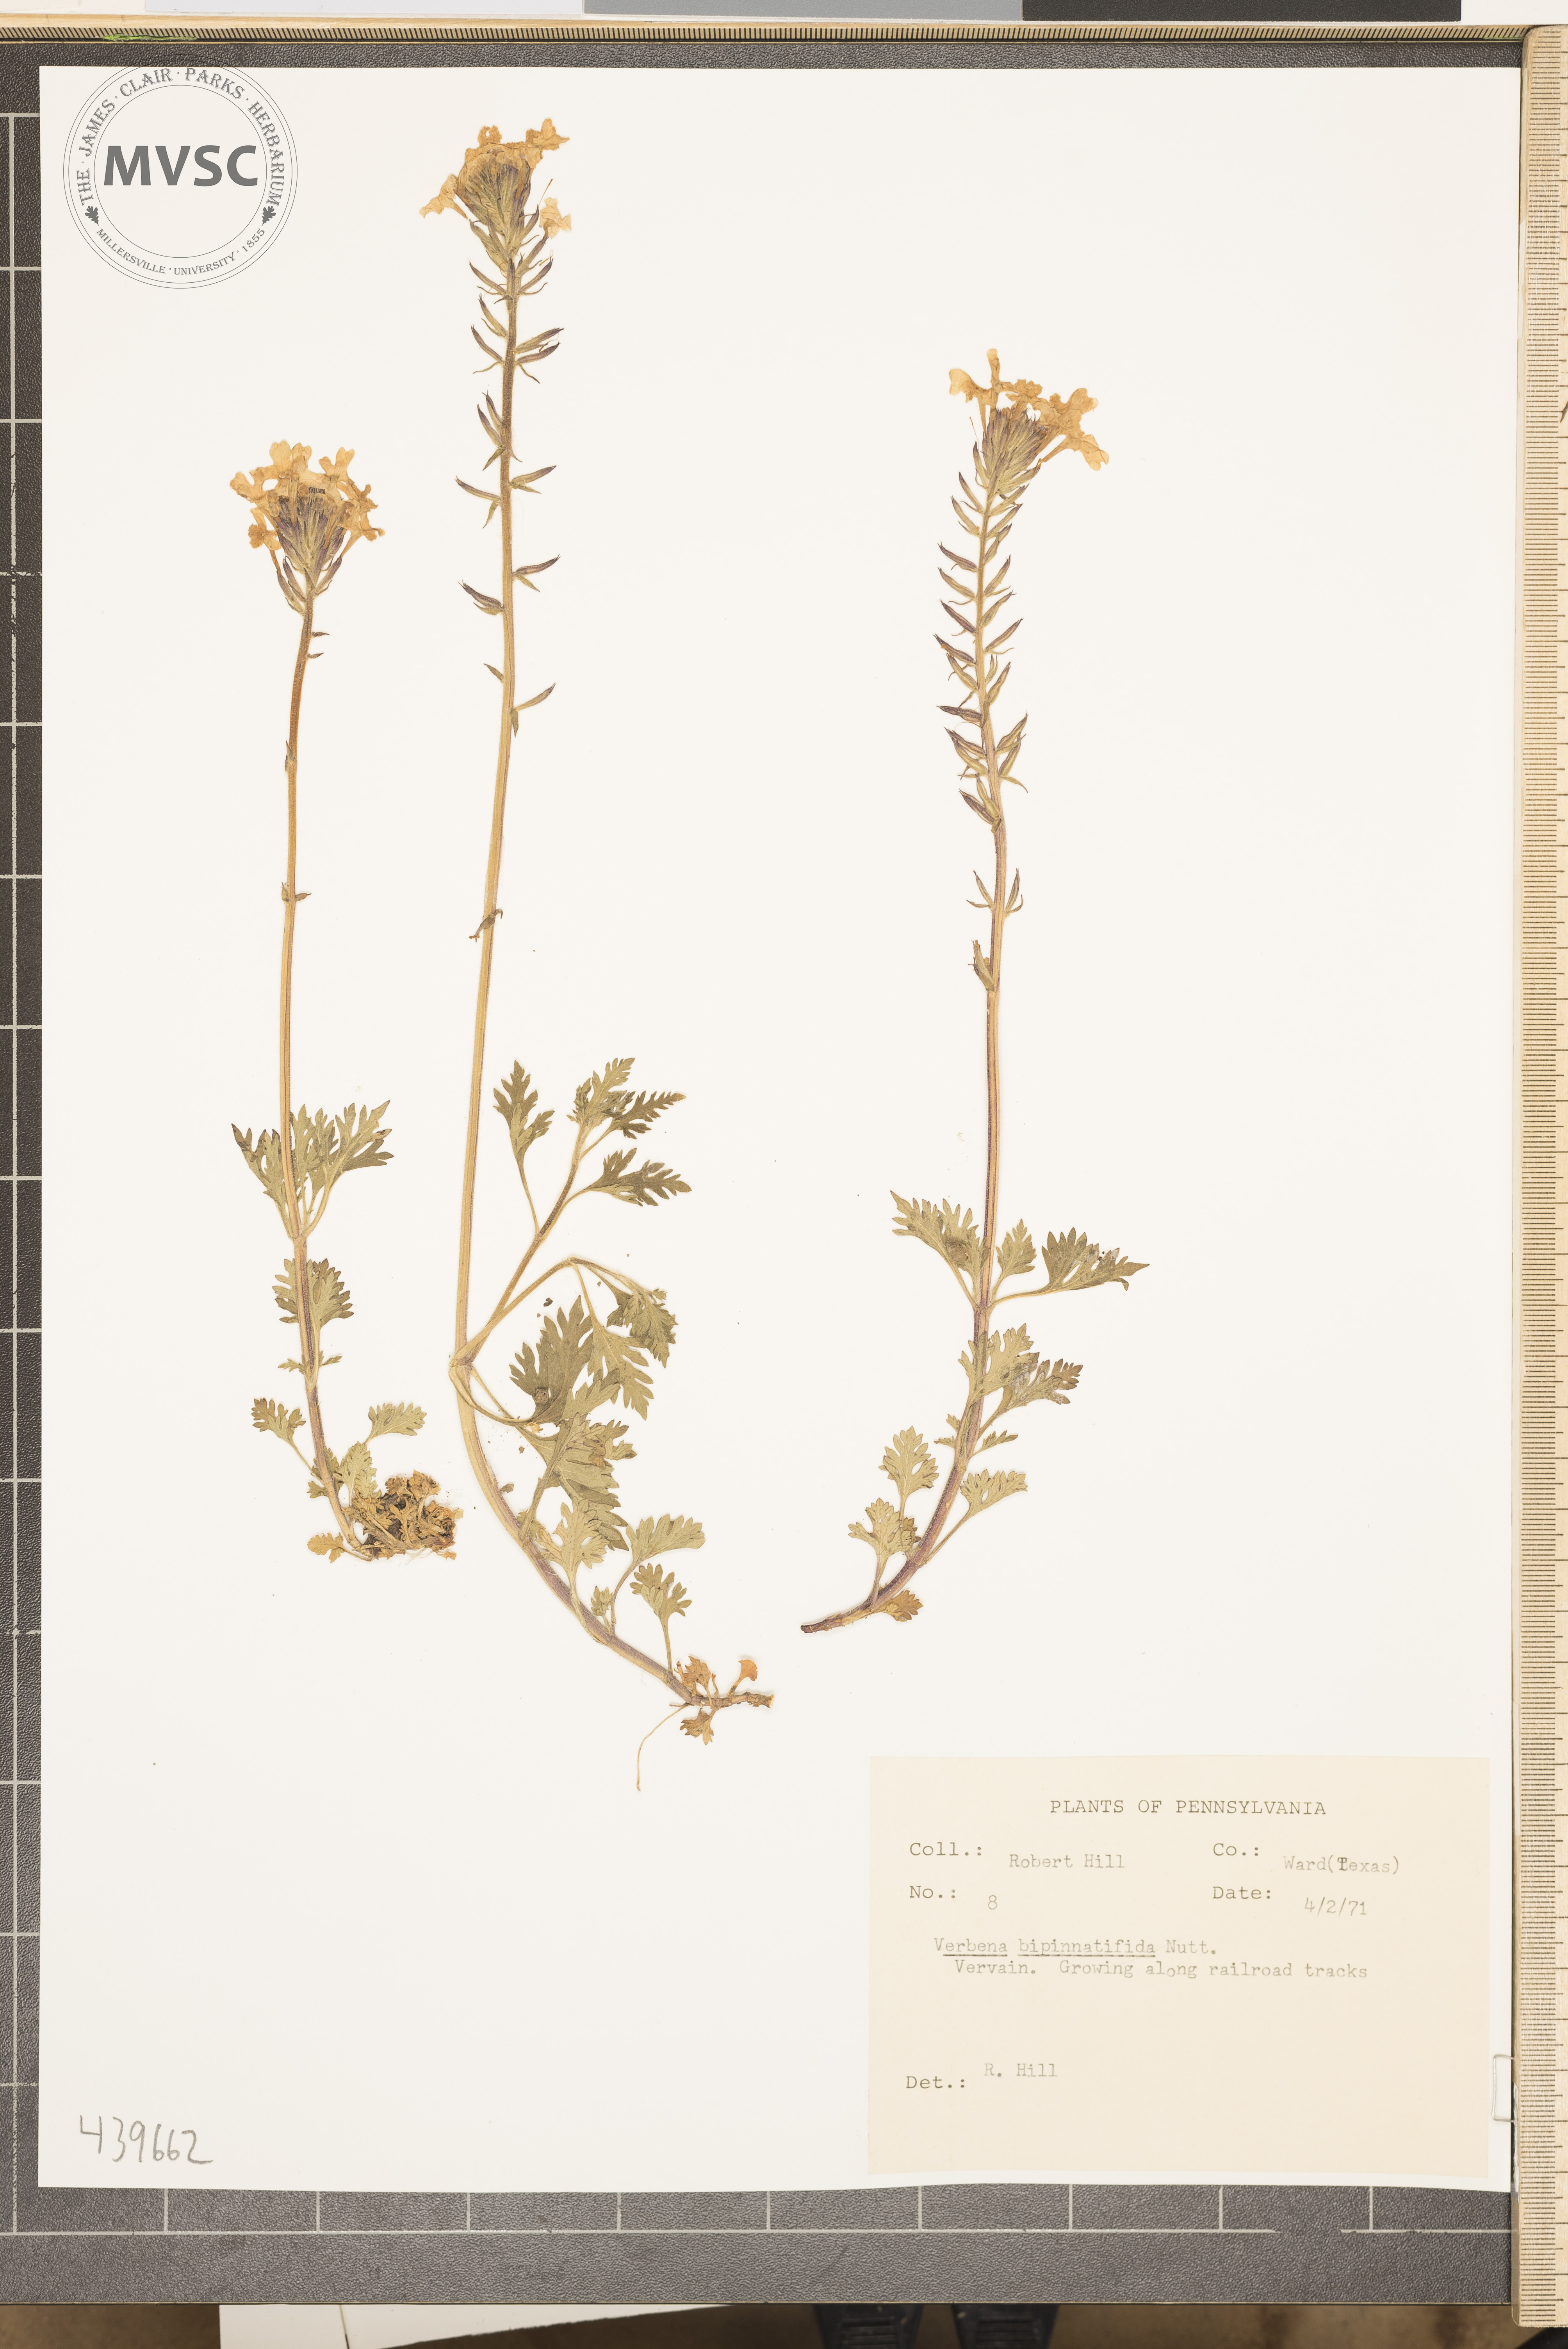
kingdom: Plantae
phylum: Tracheophyta
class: Magnoliopsida
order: Lamiales
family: Verbenaceae
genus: Verbena
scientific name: Verbena bipinnatifida
